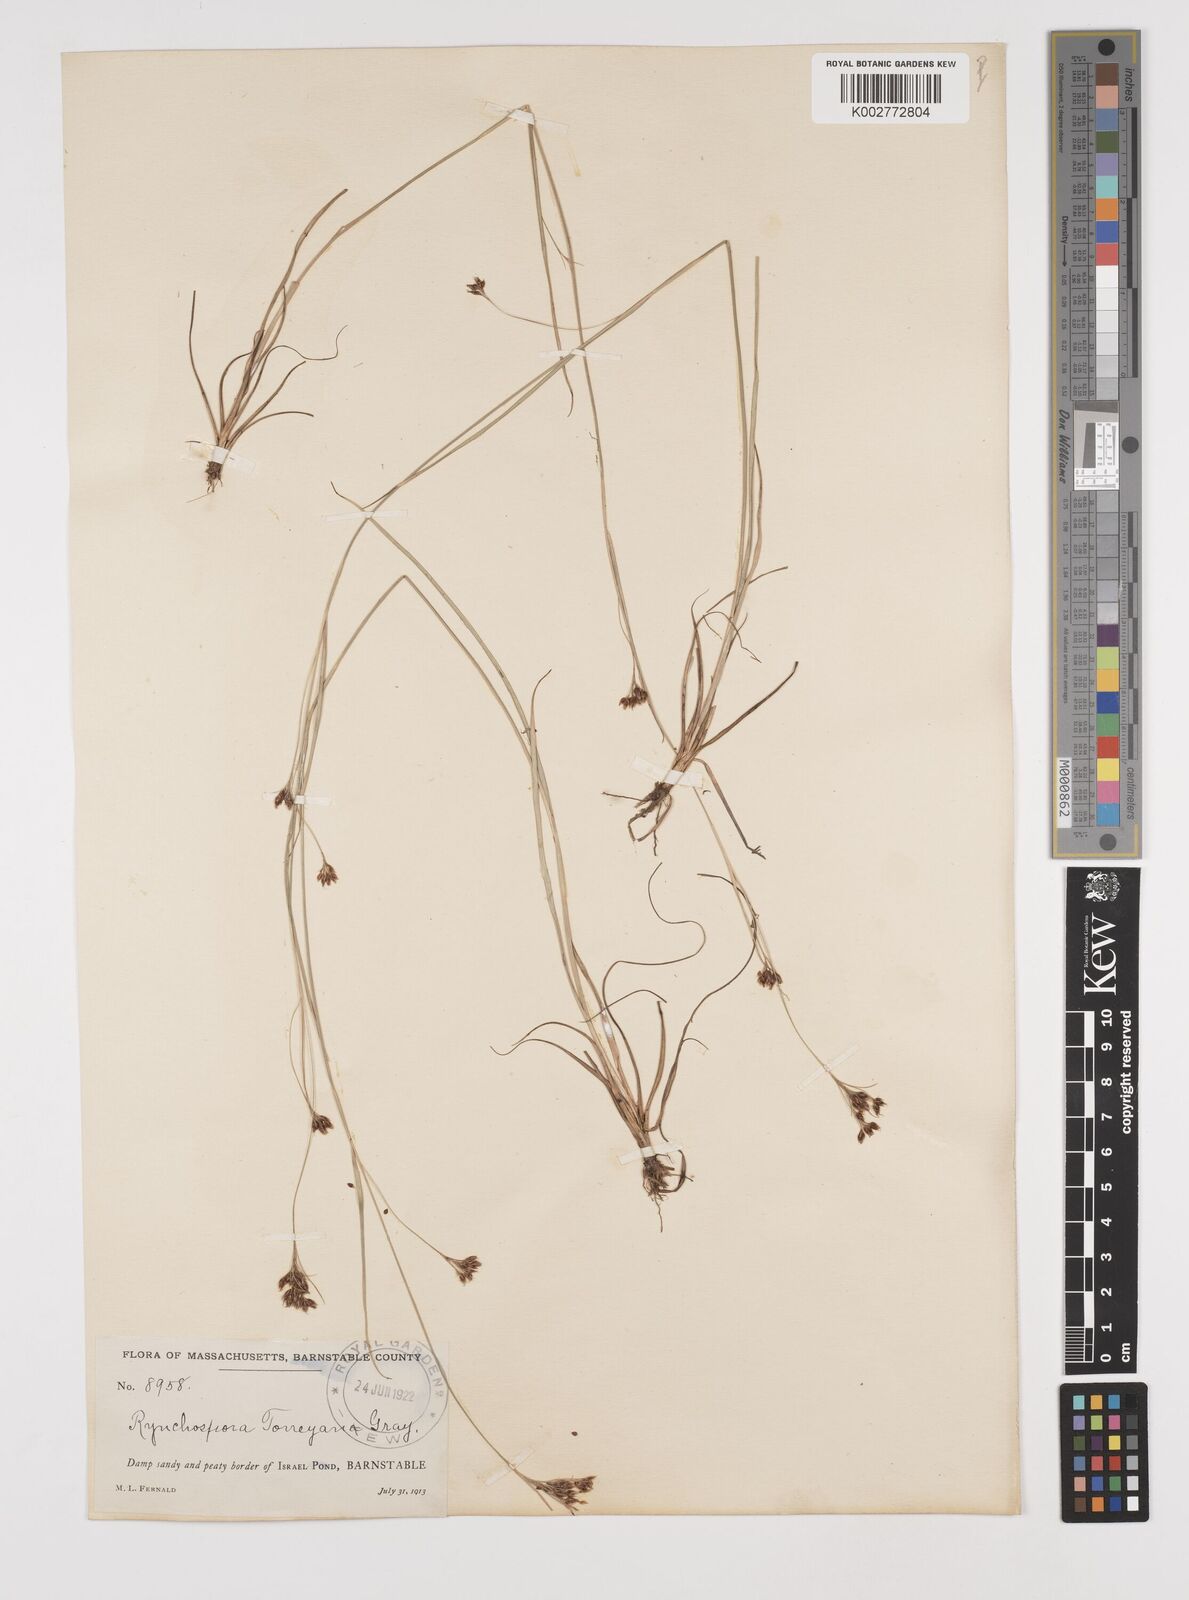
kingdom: Plantae
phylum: Tracheophyta
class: Liliopsida
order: Poales
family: Cyperaceae
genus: Rhynchospora
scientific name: Rhynchospora torreyana
